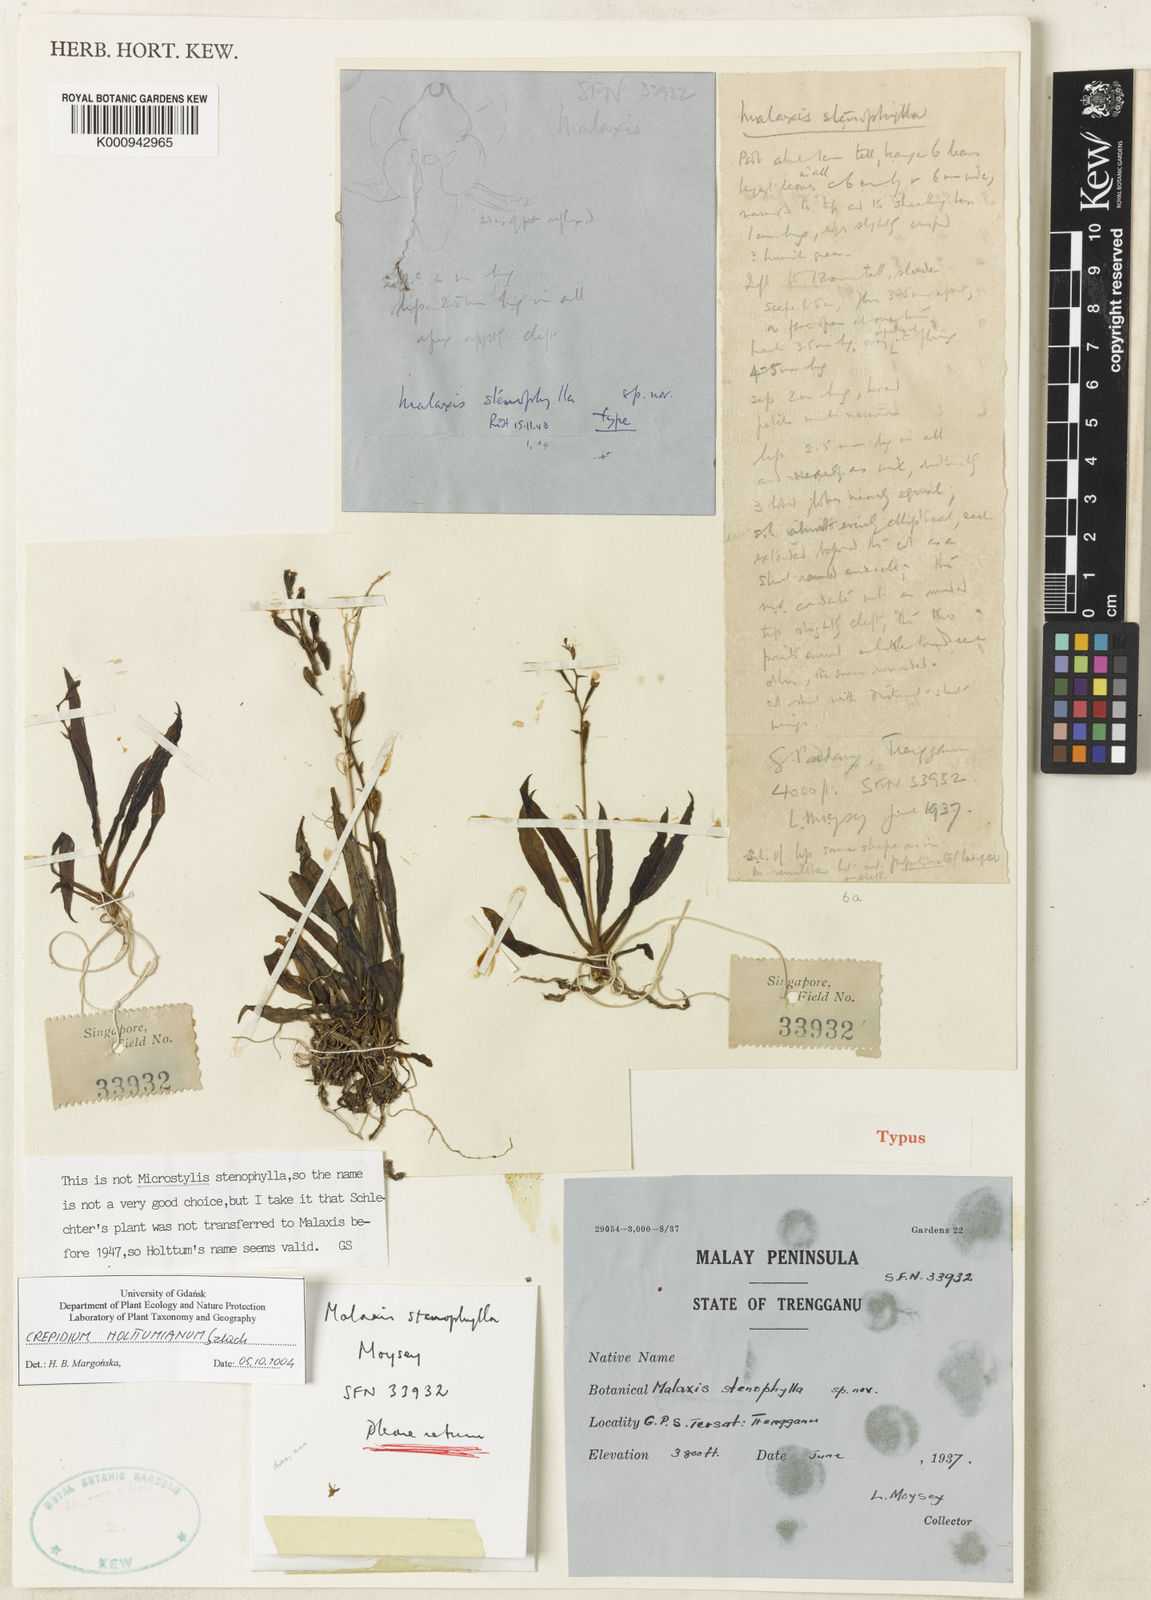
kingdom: Plantae
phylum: Tracheophyta
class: Liliopsida
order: Asparagales
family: Orchidaceae
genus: Crepidium
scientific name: Crepidium stenophyllum
